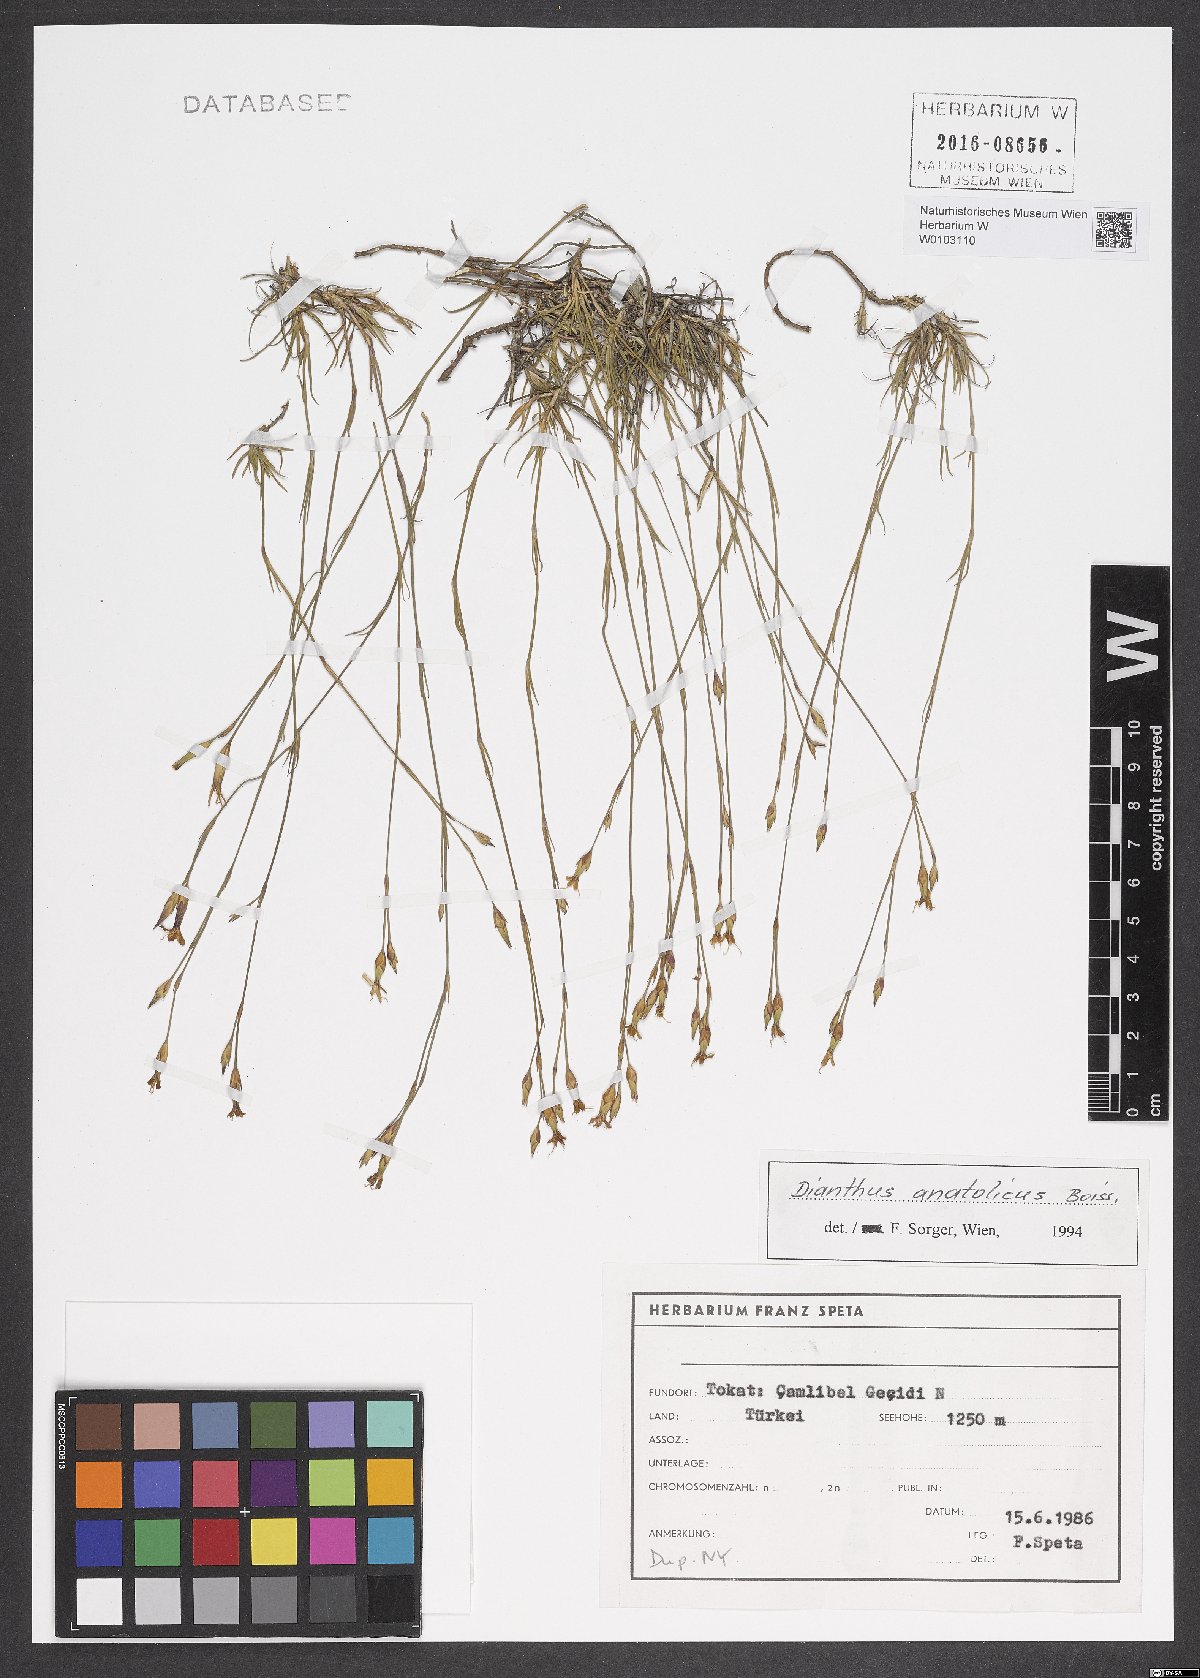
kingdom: Plantae
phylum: Tracheophyta
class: Magnoliopsida
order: Caryophyllales
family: Caryophyllaceae
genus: Dianthus
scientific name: Dianthus anatolicus
